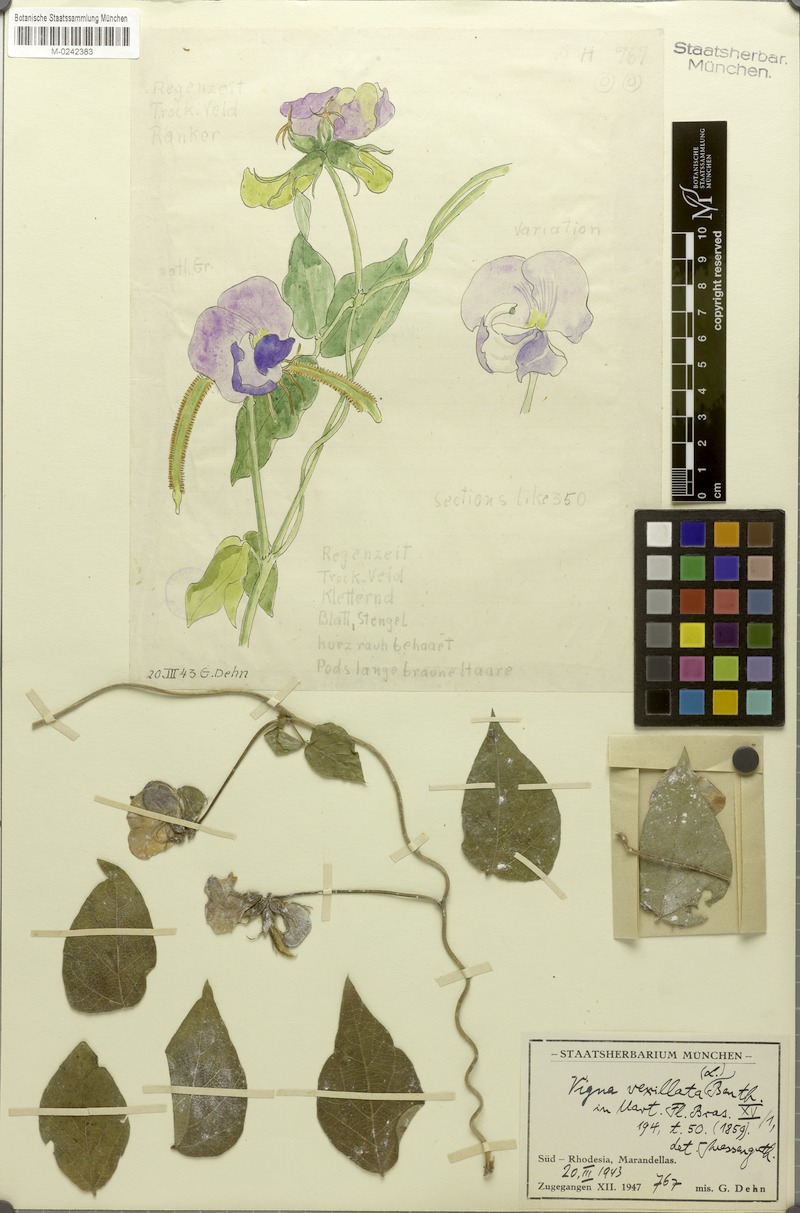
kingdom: Plantae
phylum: Tracheophyta
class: Magnoliopsida
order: Fabales
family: Fabaceae
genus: Vigna
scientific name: Vigna vexillata
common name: Zombi pea
